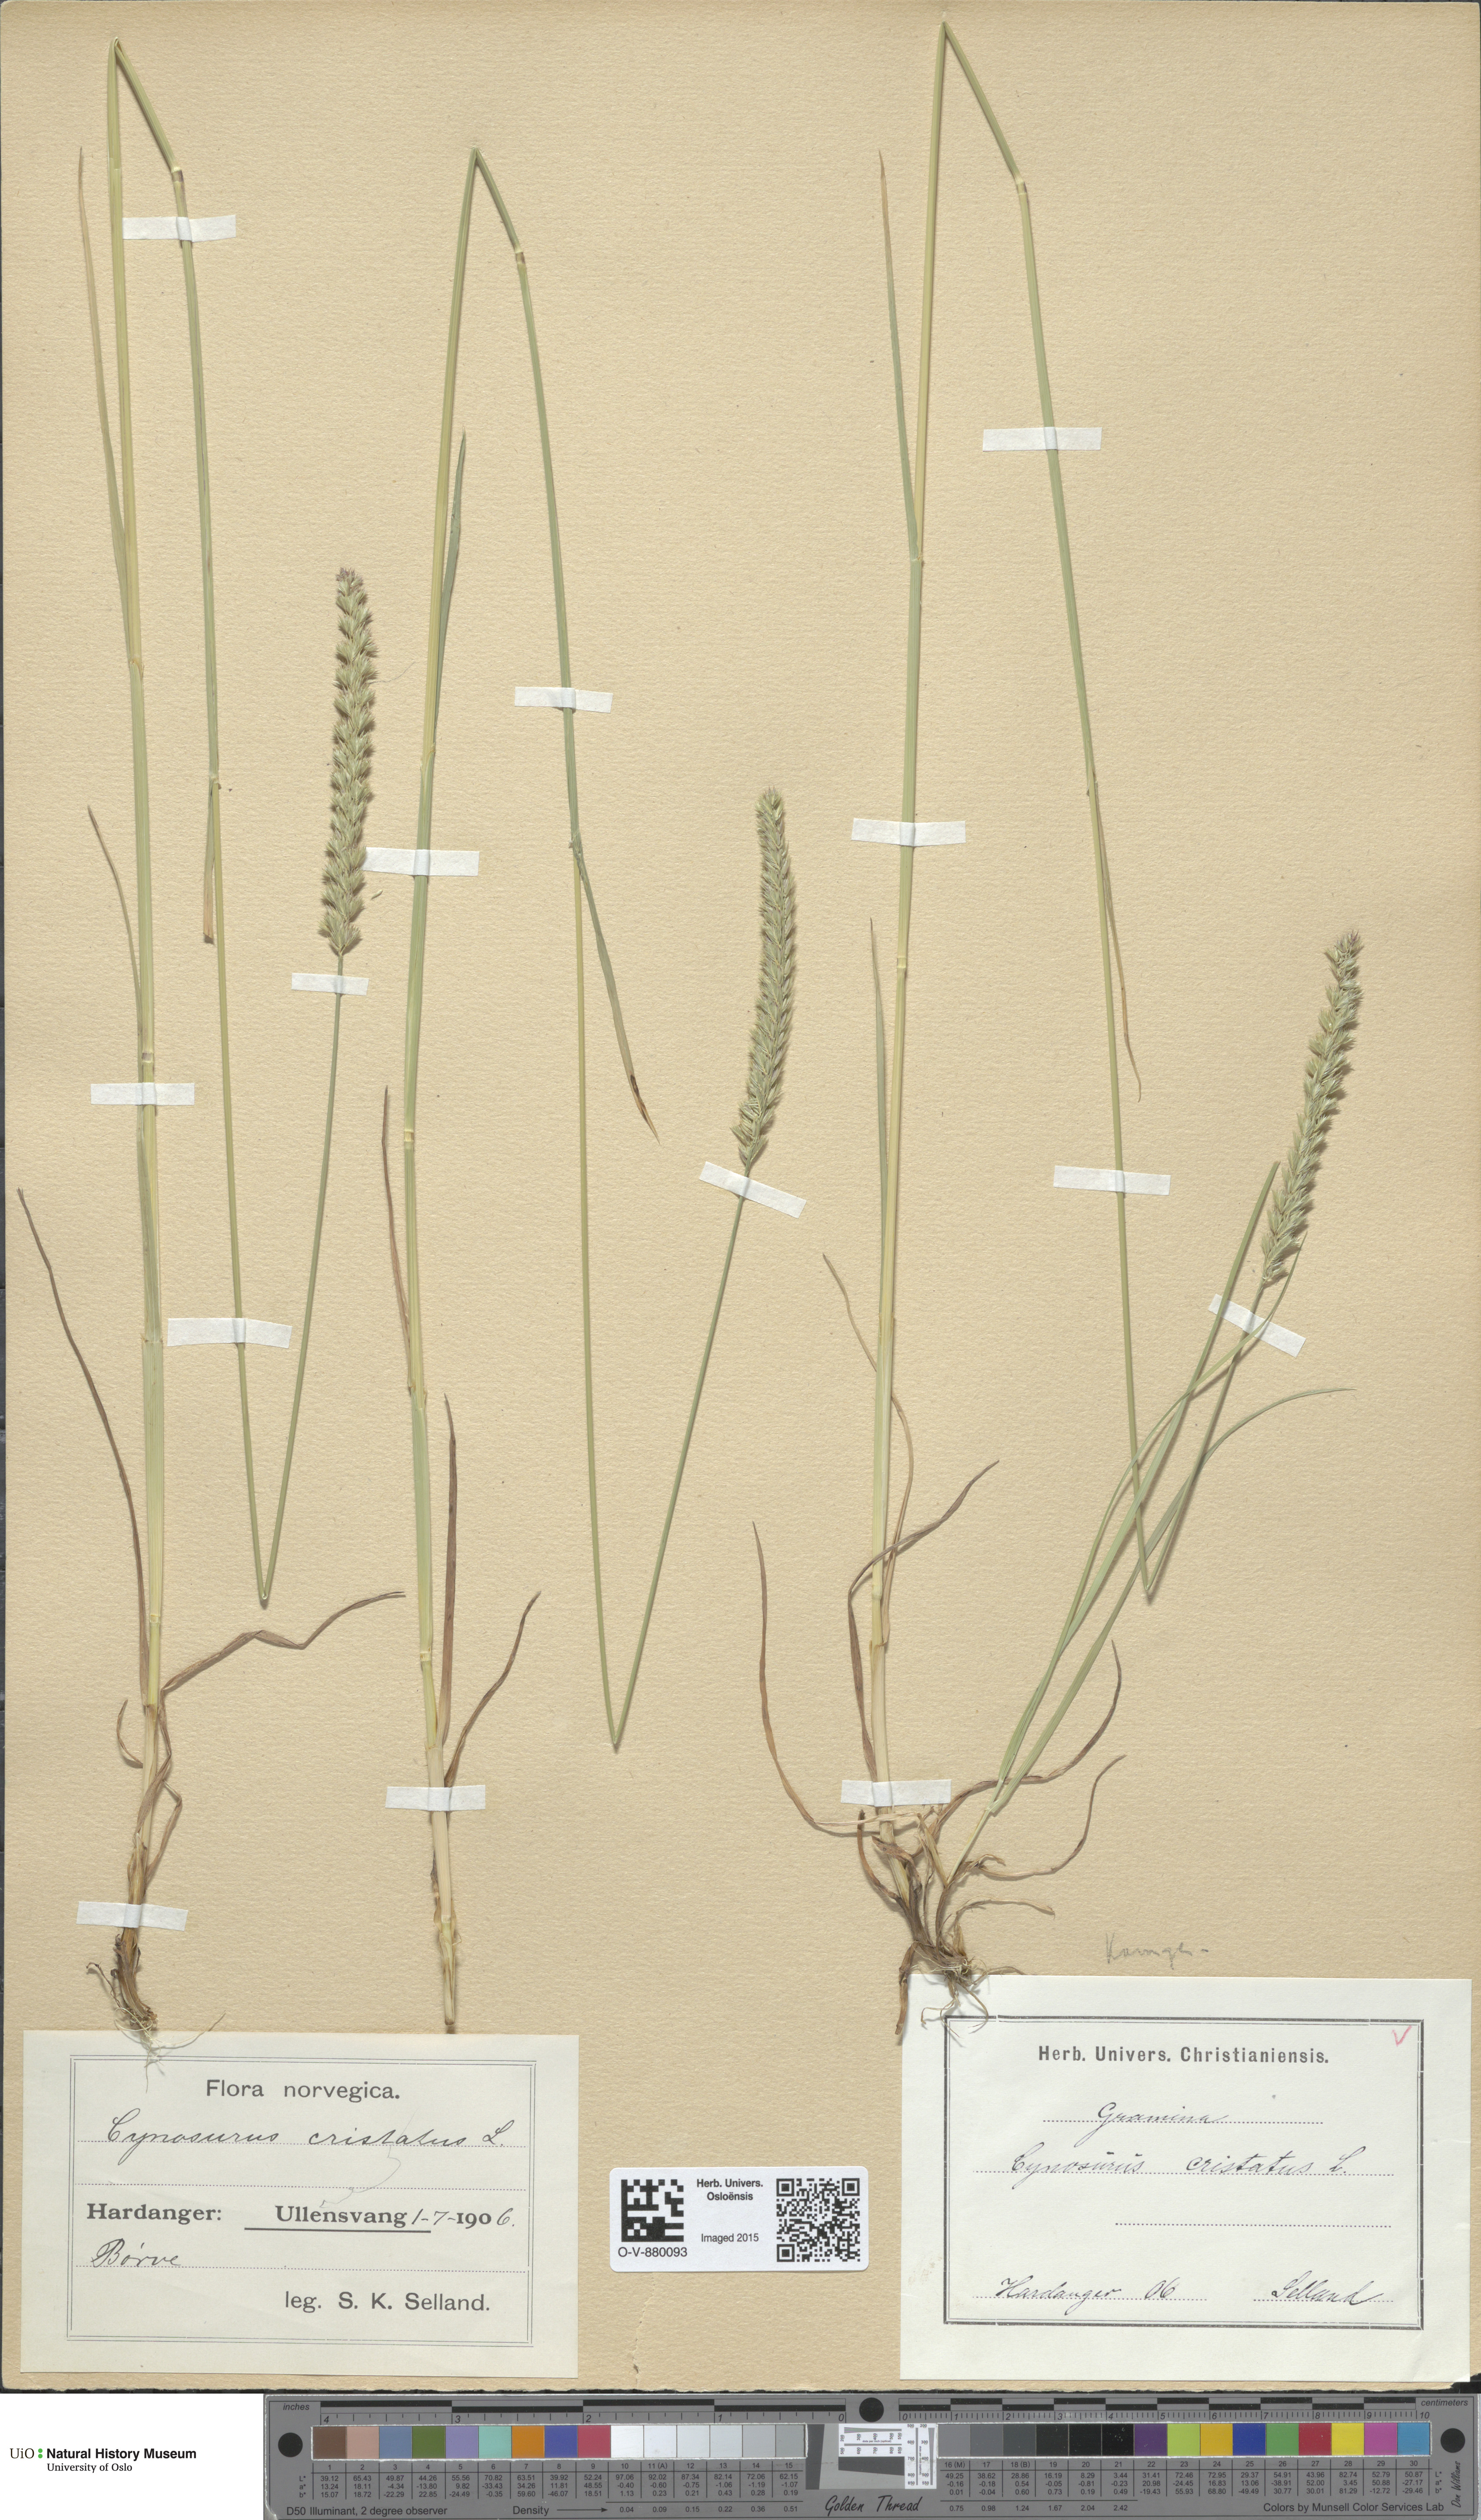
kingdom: Plantae
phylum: Tracheophyta
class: Liliopsida
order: Poales
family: Poaceae
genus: Cynosurus
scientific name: Cynosurus cristatus
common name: Crested dog's-tail
